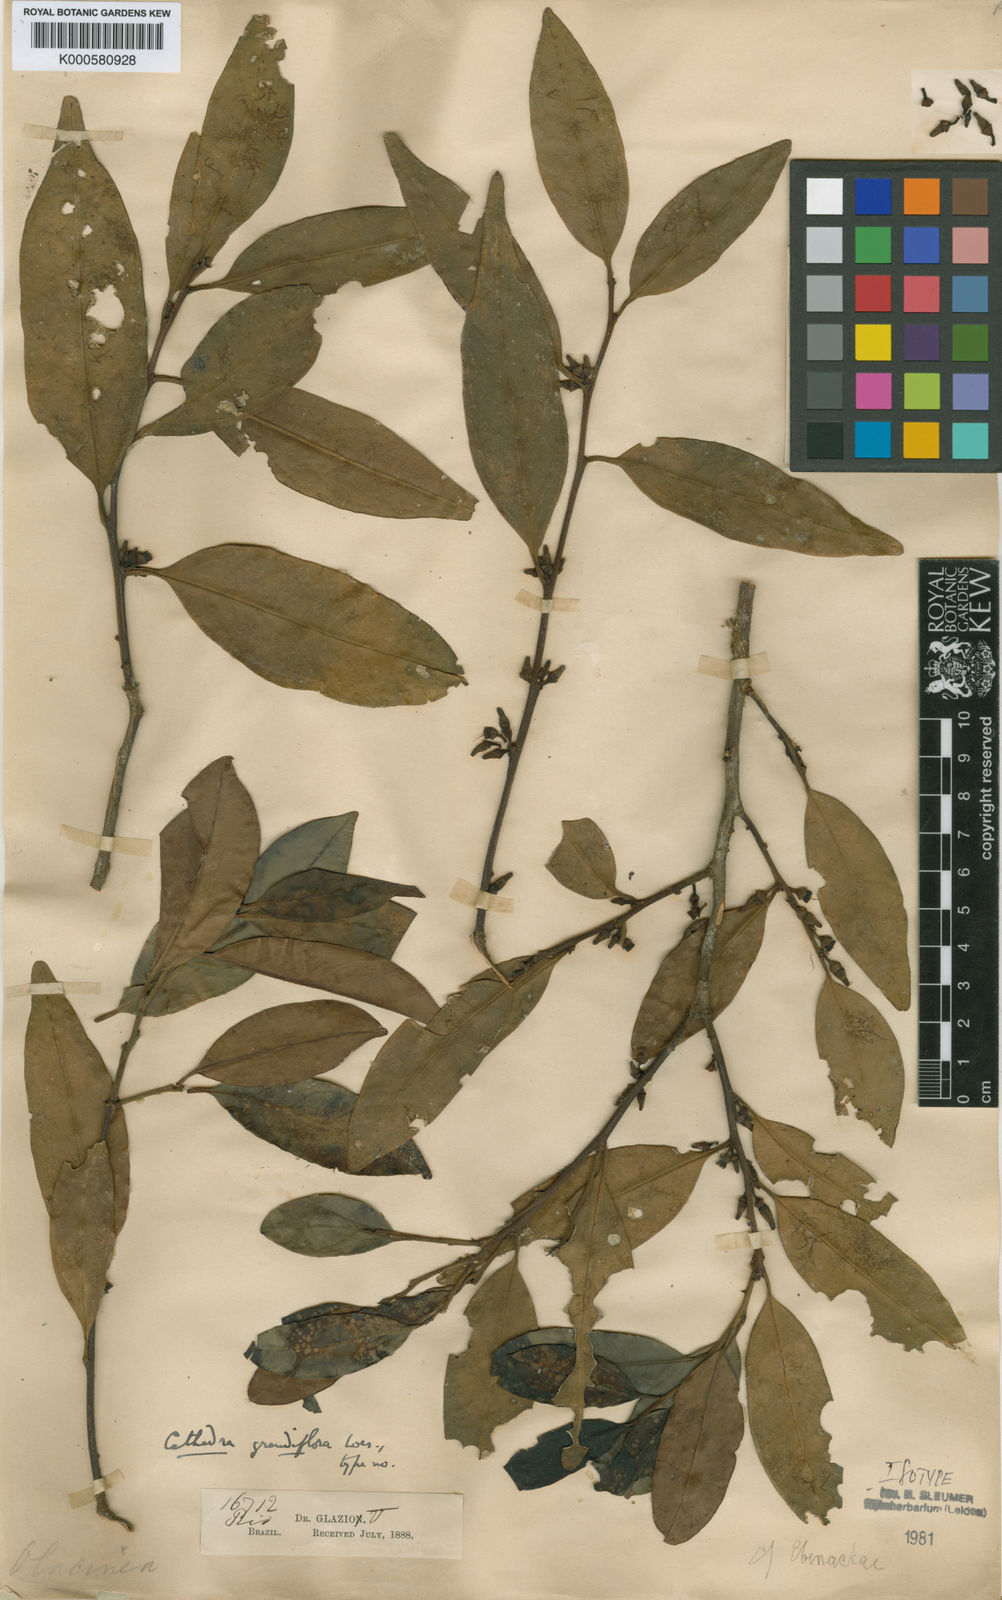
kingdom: Plantae
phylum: Tracheophyta
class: Magnoliopsida
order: Santalales
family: Aptandraceae
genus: Cathedra
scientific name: Cathedra grandiflora
